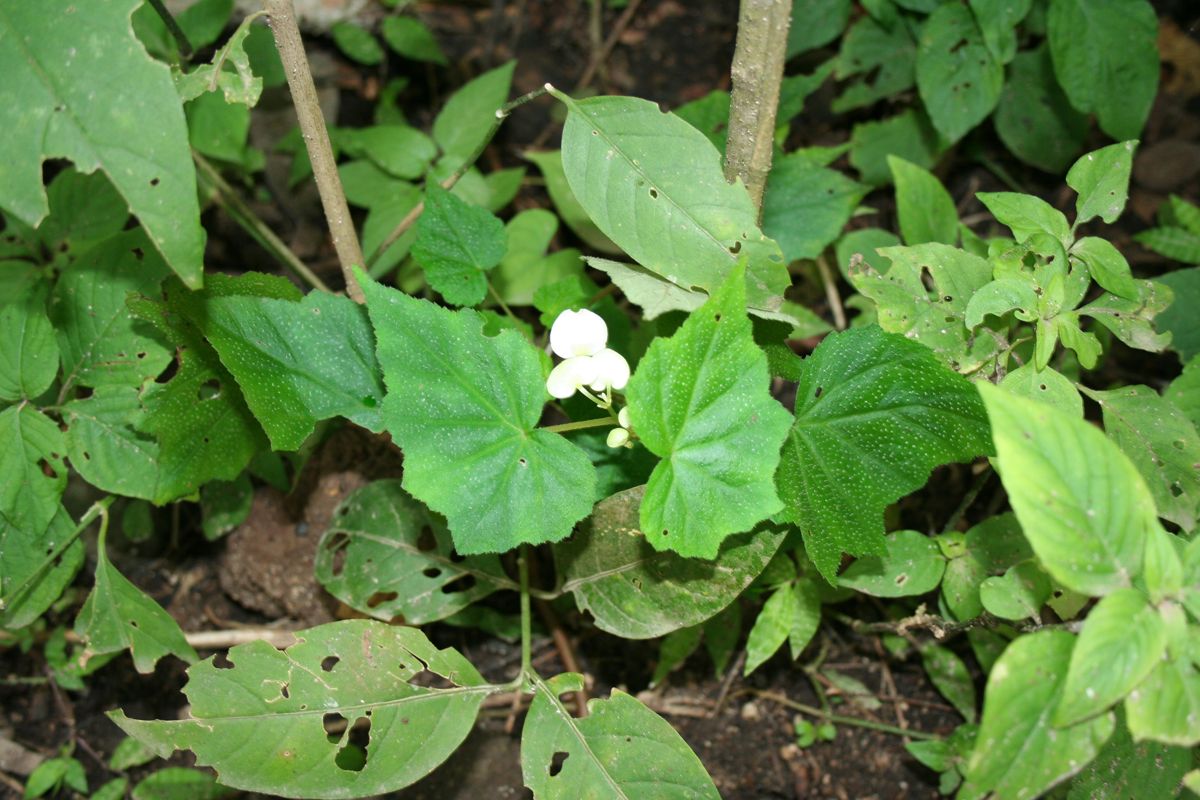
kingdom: Plantae
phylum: Tracheophyta
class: Magnoliopsida
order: Cucurbitales
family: Begoniaceae
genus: Begonia
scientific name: Begonia cebadillensis
